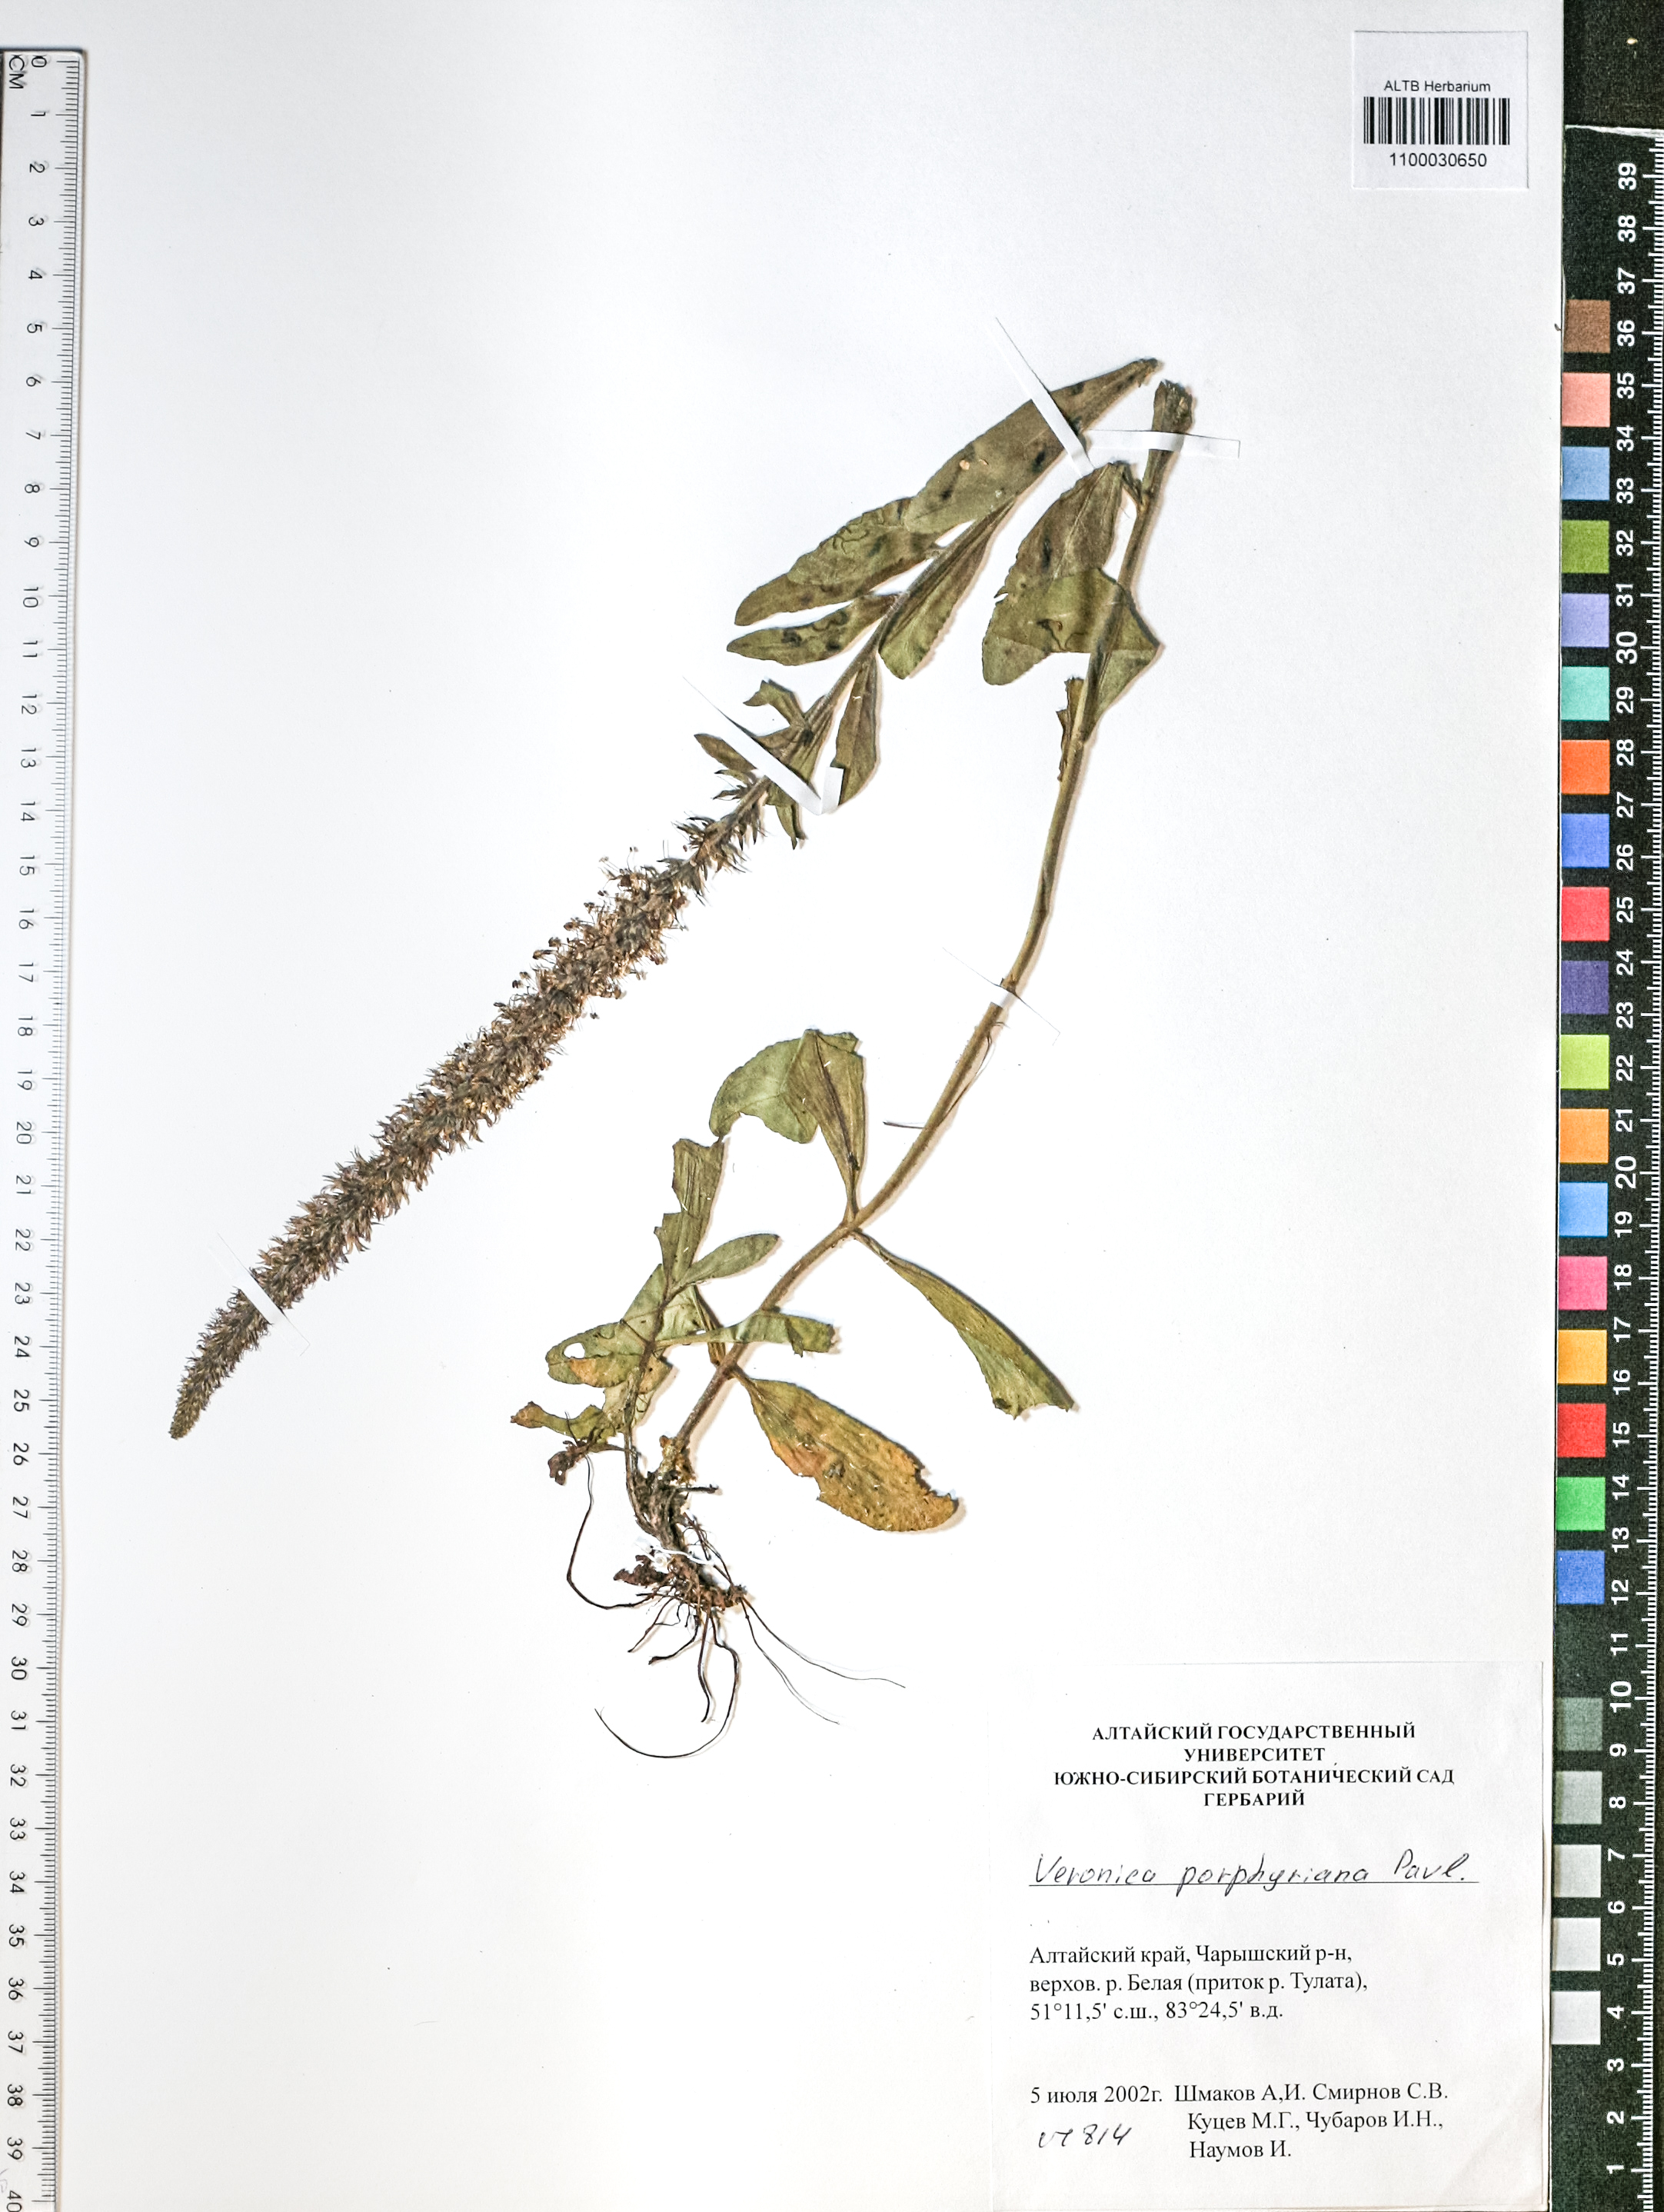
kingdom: Plantae
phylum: Tracheophyta
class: Magnoliopsida
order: Lamiales
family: Plantaginaceae
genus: Veronica
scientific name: Veronica porphyriana
